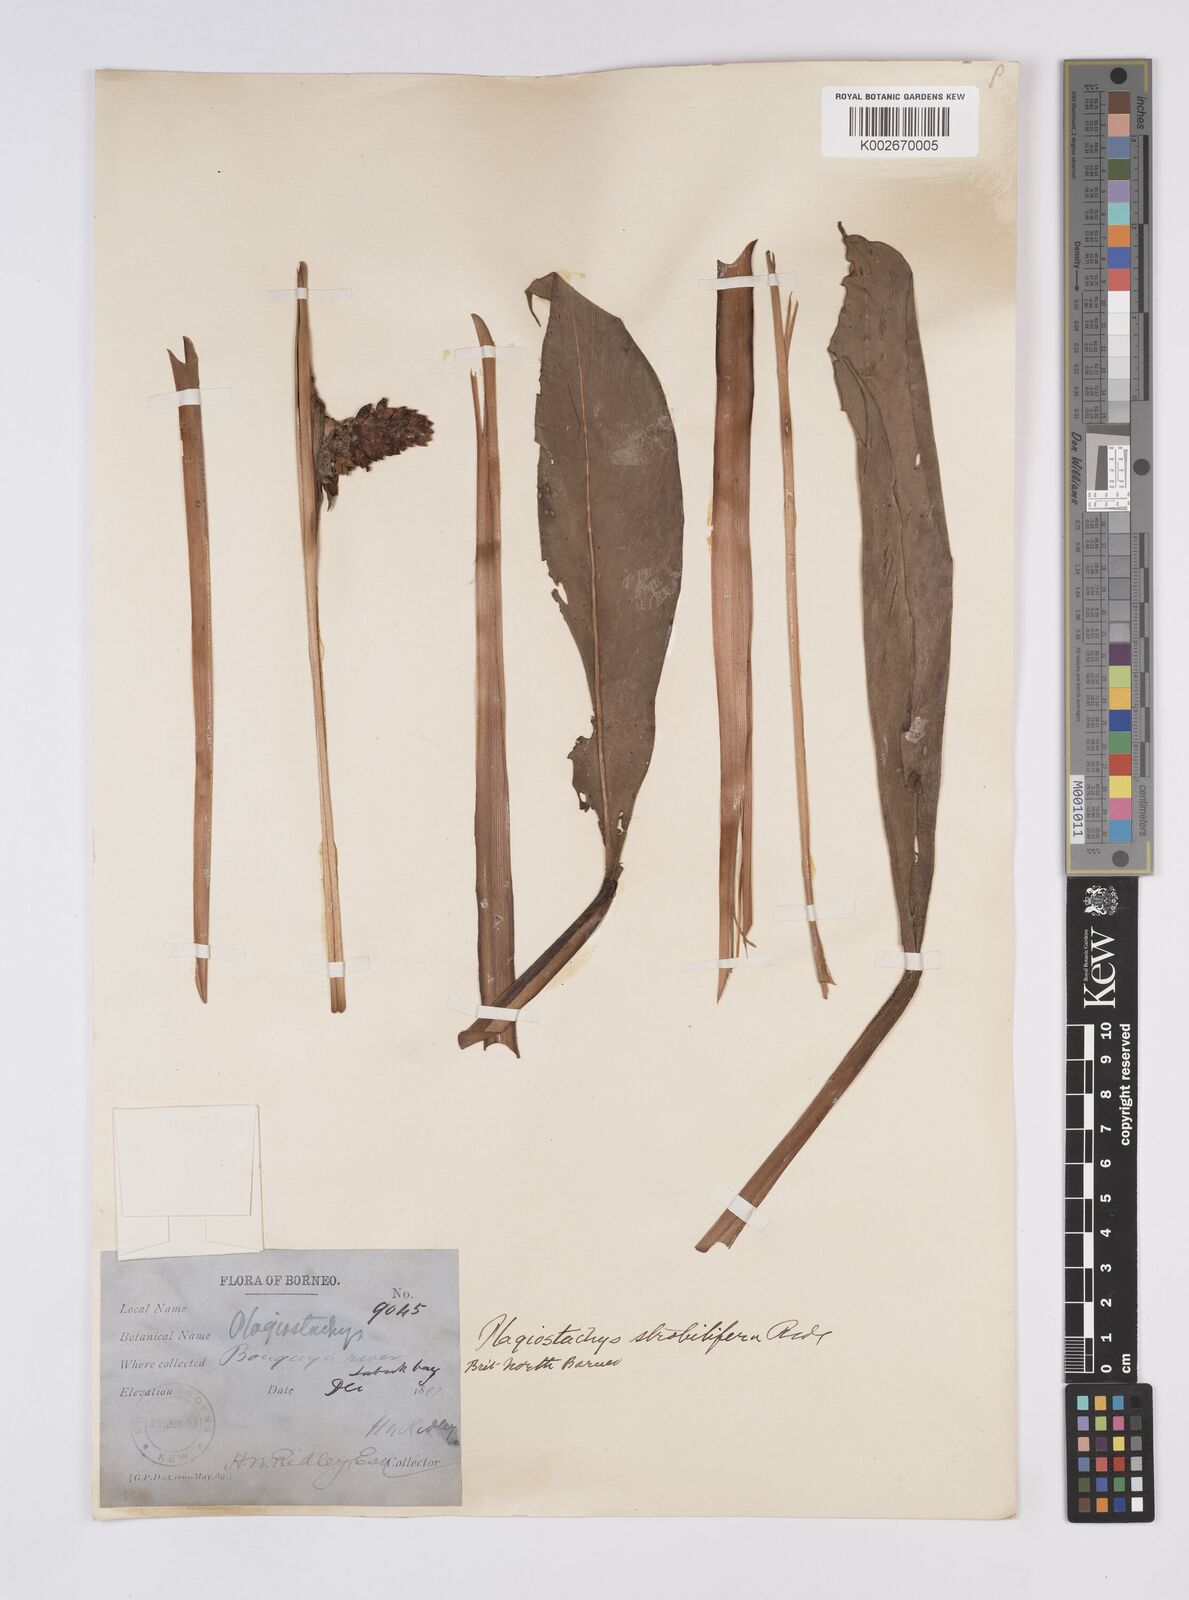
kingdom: Plantae
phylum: Tracheophyta
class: Liliopsida
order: Zingiberales
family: Zingiberaceae
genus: Plagiostachys
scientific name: Plagiostachys strobilifera
